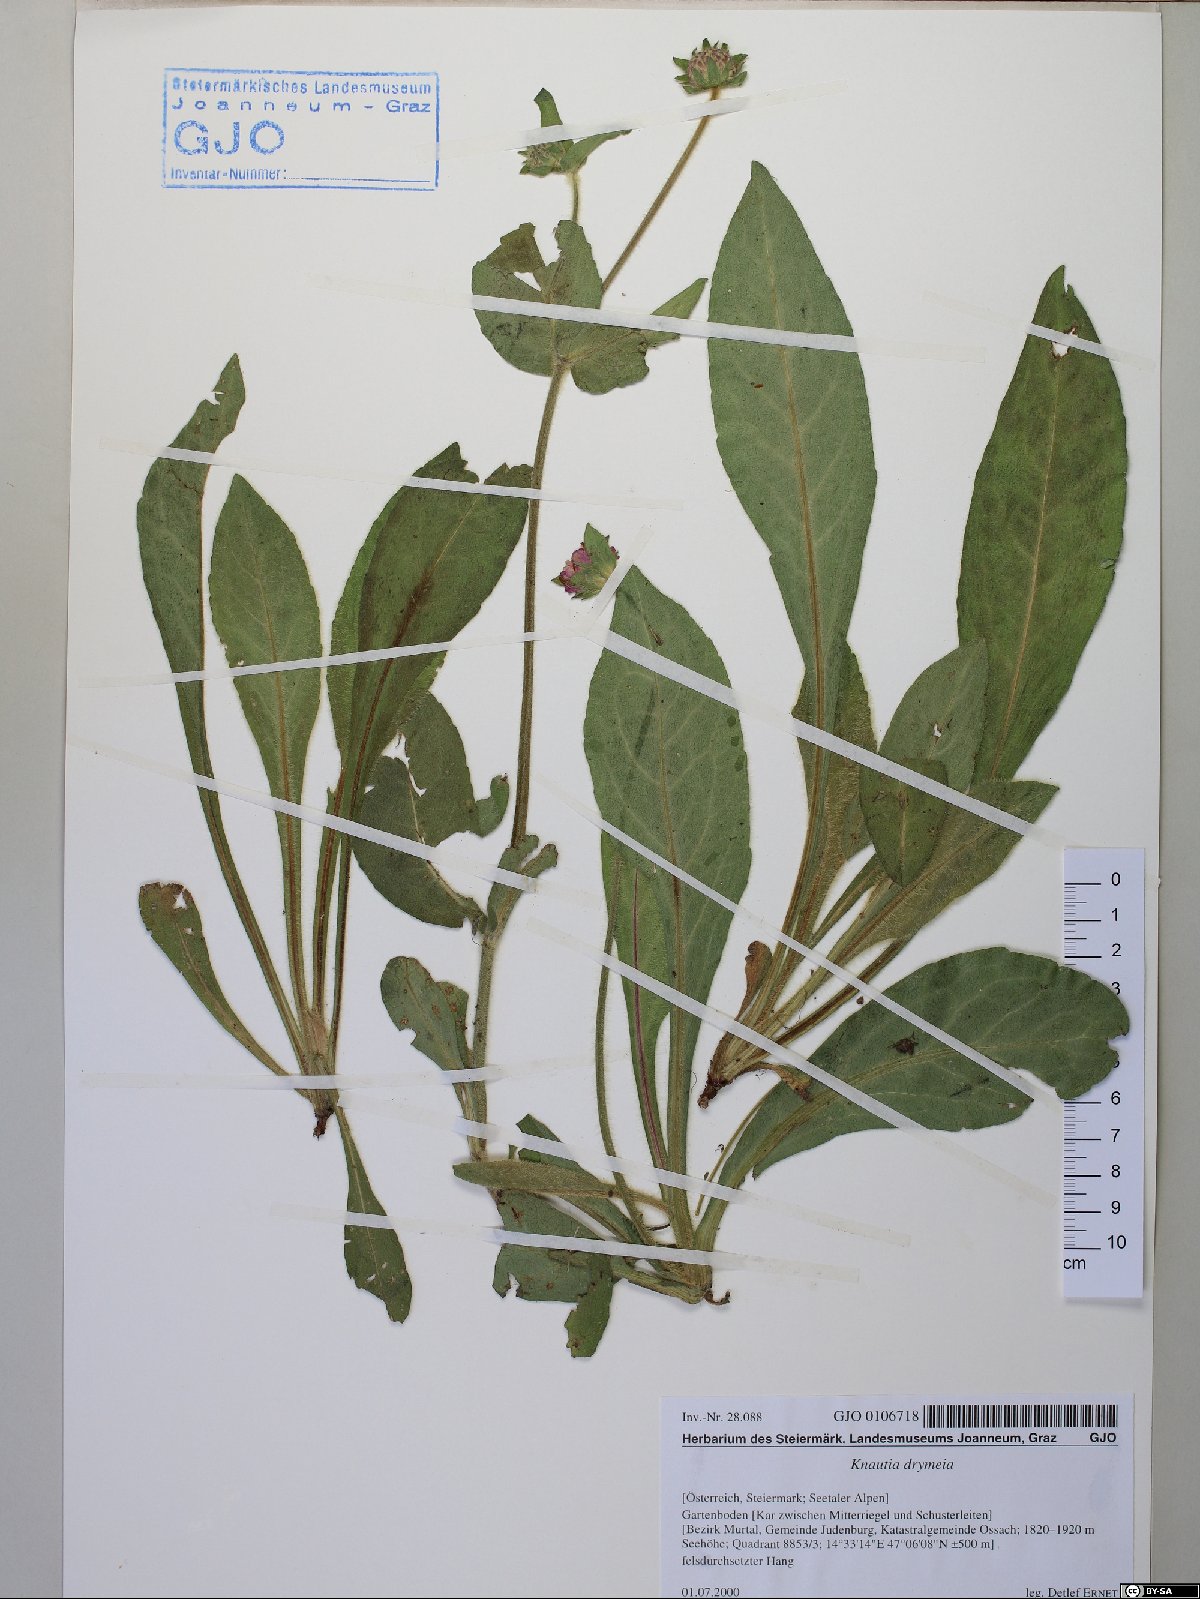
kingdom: Plantae
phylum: Tracheophyta
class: Magnoliopsida
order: Dipsacales
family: Caprifoliaceae
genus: Knautia
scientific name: Knautia drymeia
